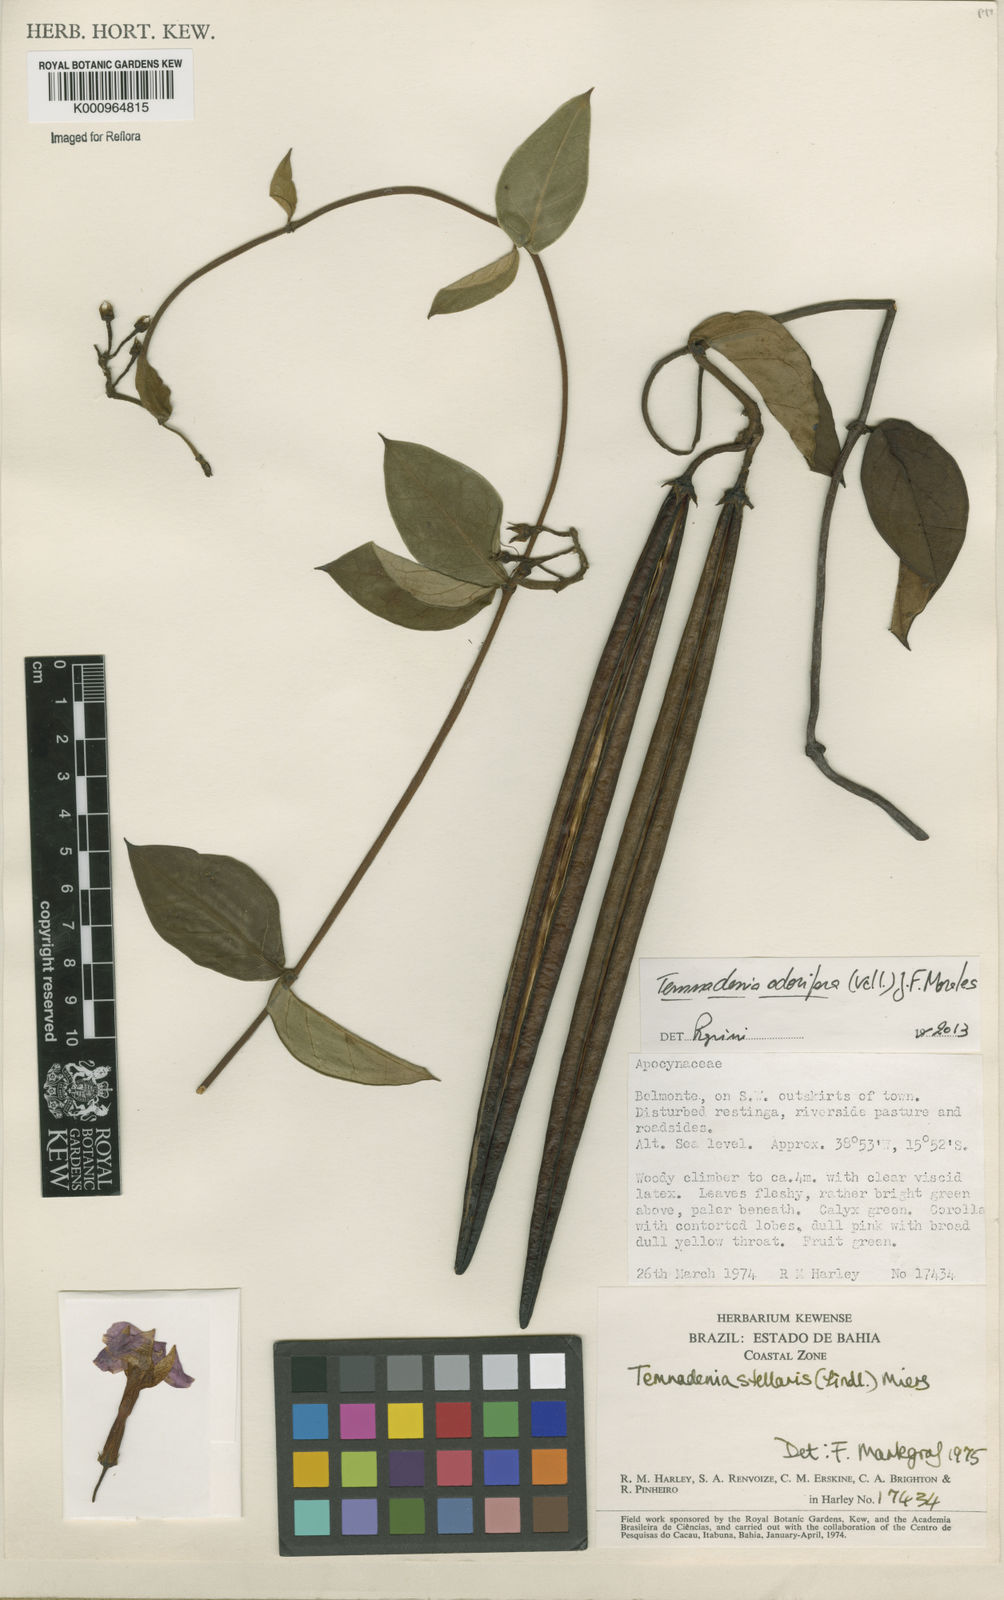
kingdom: Plantae
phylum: Tracheophyta
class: Magnoliopsida
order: Gentianales
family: Apocynaceae
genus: Temnadenia
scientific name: Temnadenia odorifera
